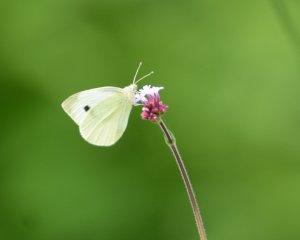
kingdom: Animalia
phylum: Arthropoda
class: Insecta
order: Lepidoptera
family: Pieridae
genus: Pieris
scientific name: Pieris rapae
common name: Cabbage White
